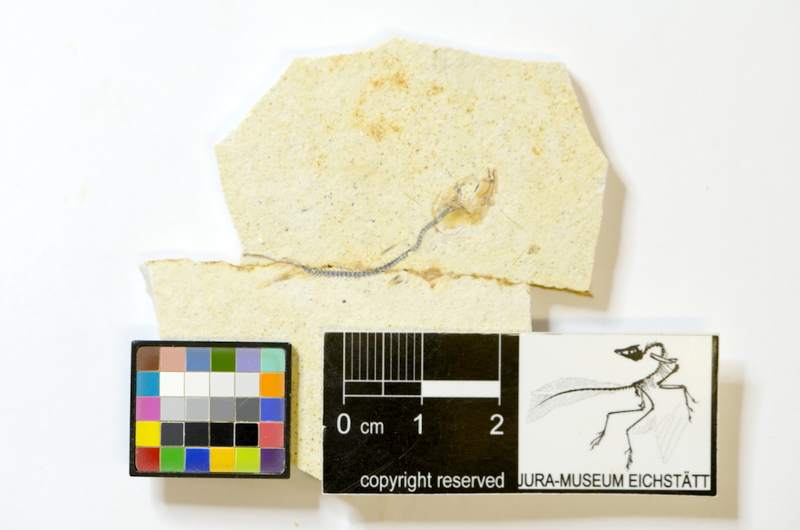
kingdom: Animalia
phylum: Chordata
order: Salmoniformes
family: Orthogonikleithridae
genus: Orthogonikleithrus
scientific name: Orthogonikleithrus hoelli
